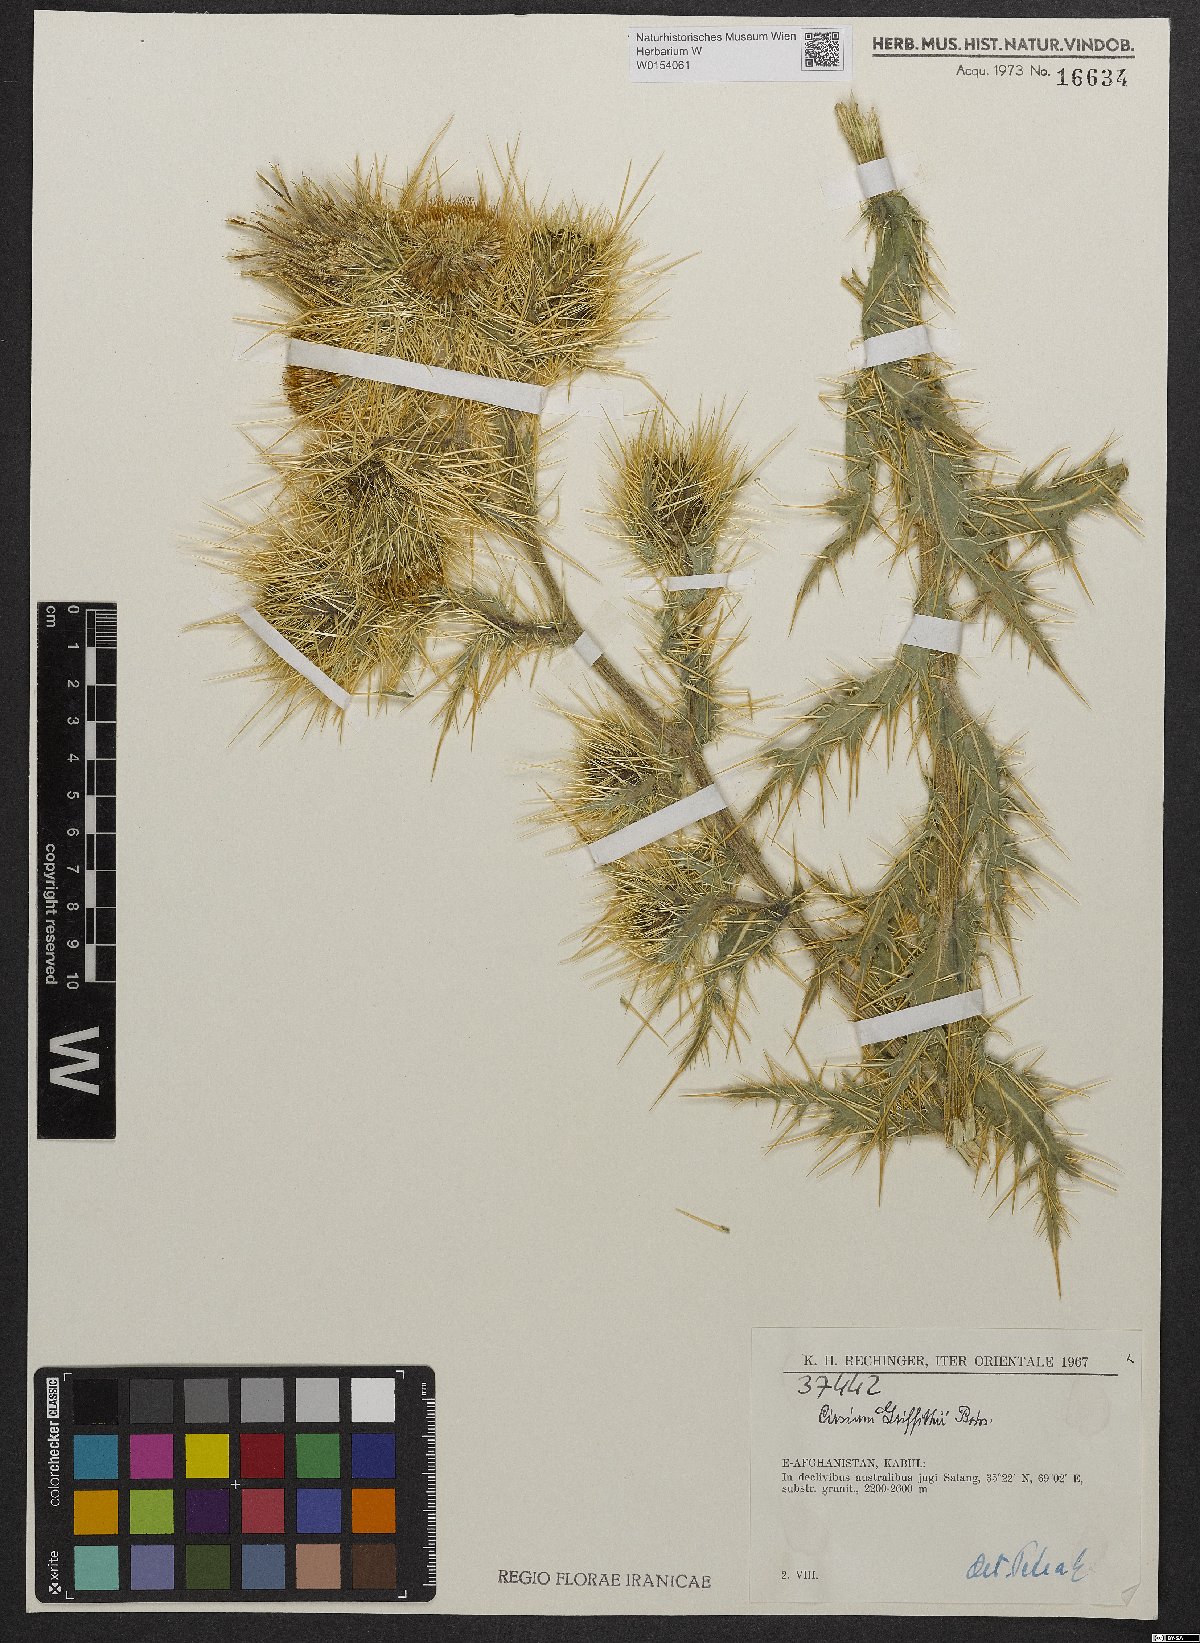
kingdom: Plantae
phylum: Tracheophyta
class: Magnoliopsida
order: Asterales
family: Asteraceae
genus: Lophiolepis
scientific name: Lophiolepis griffithii
